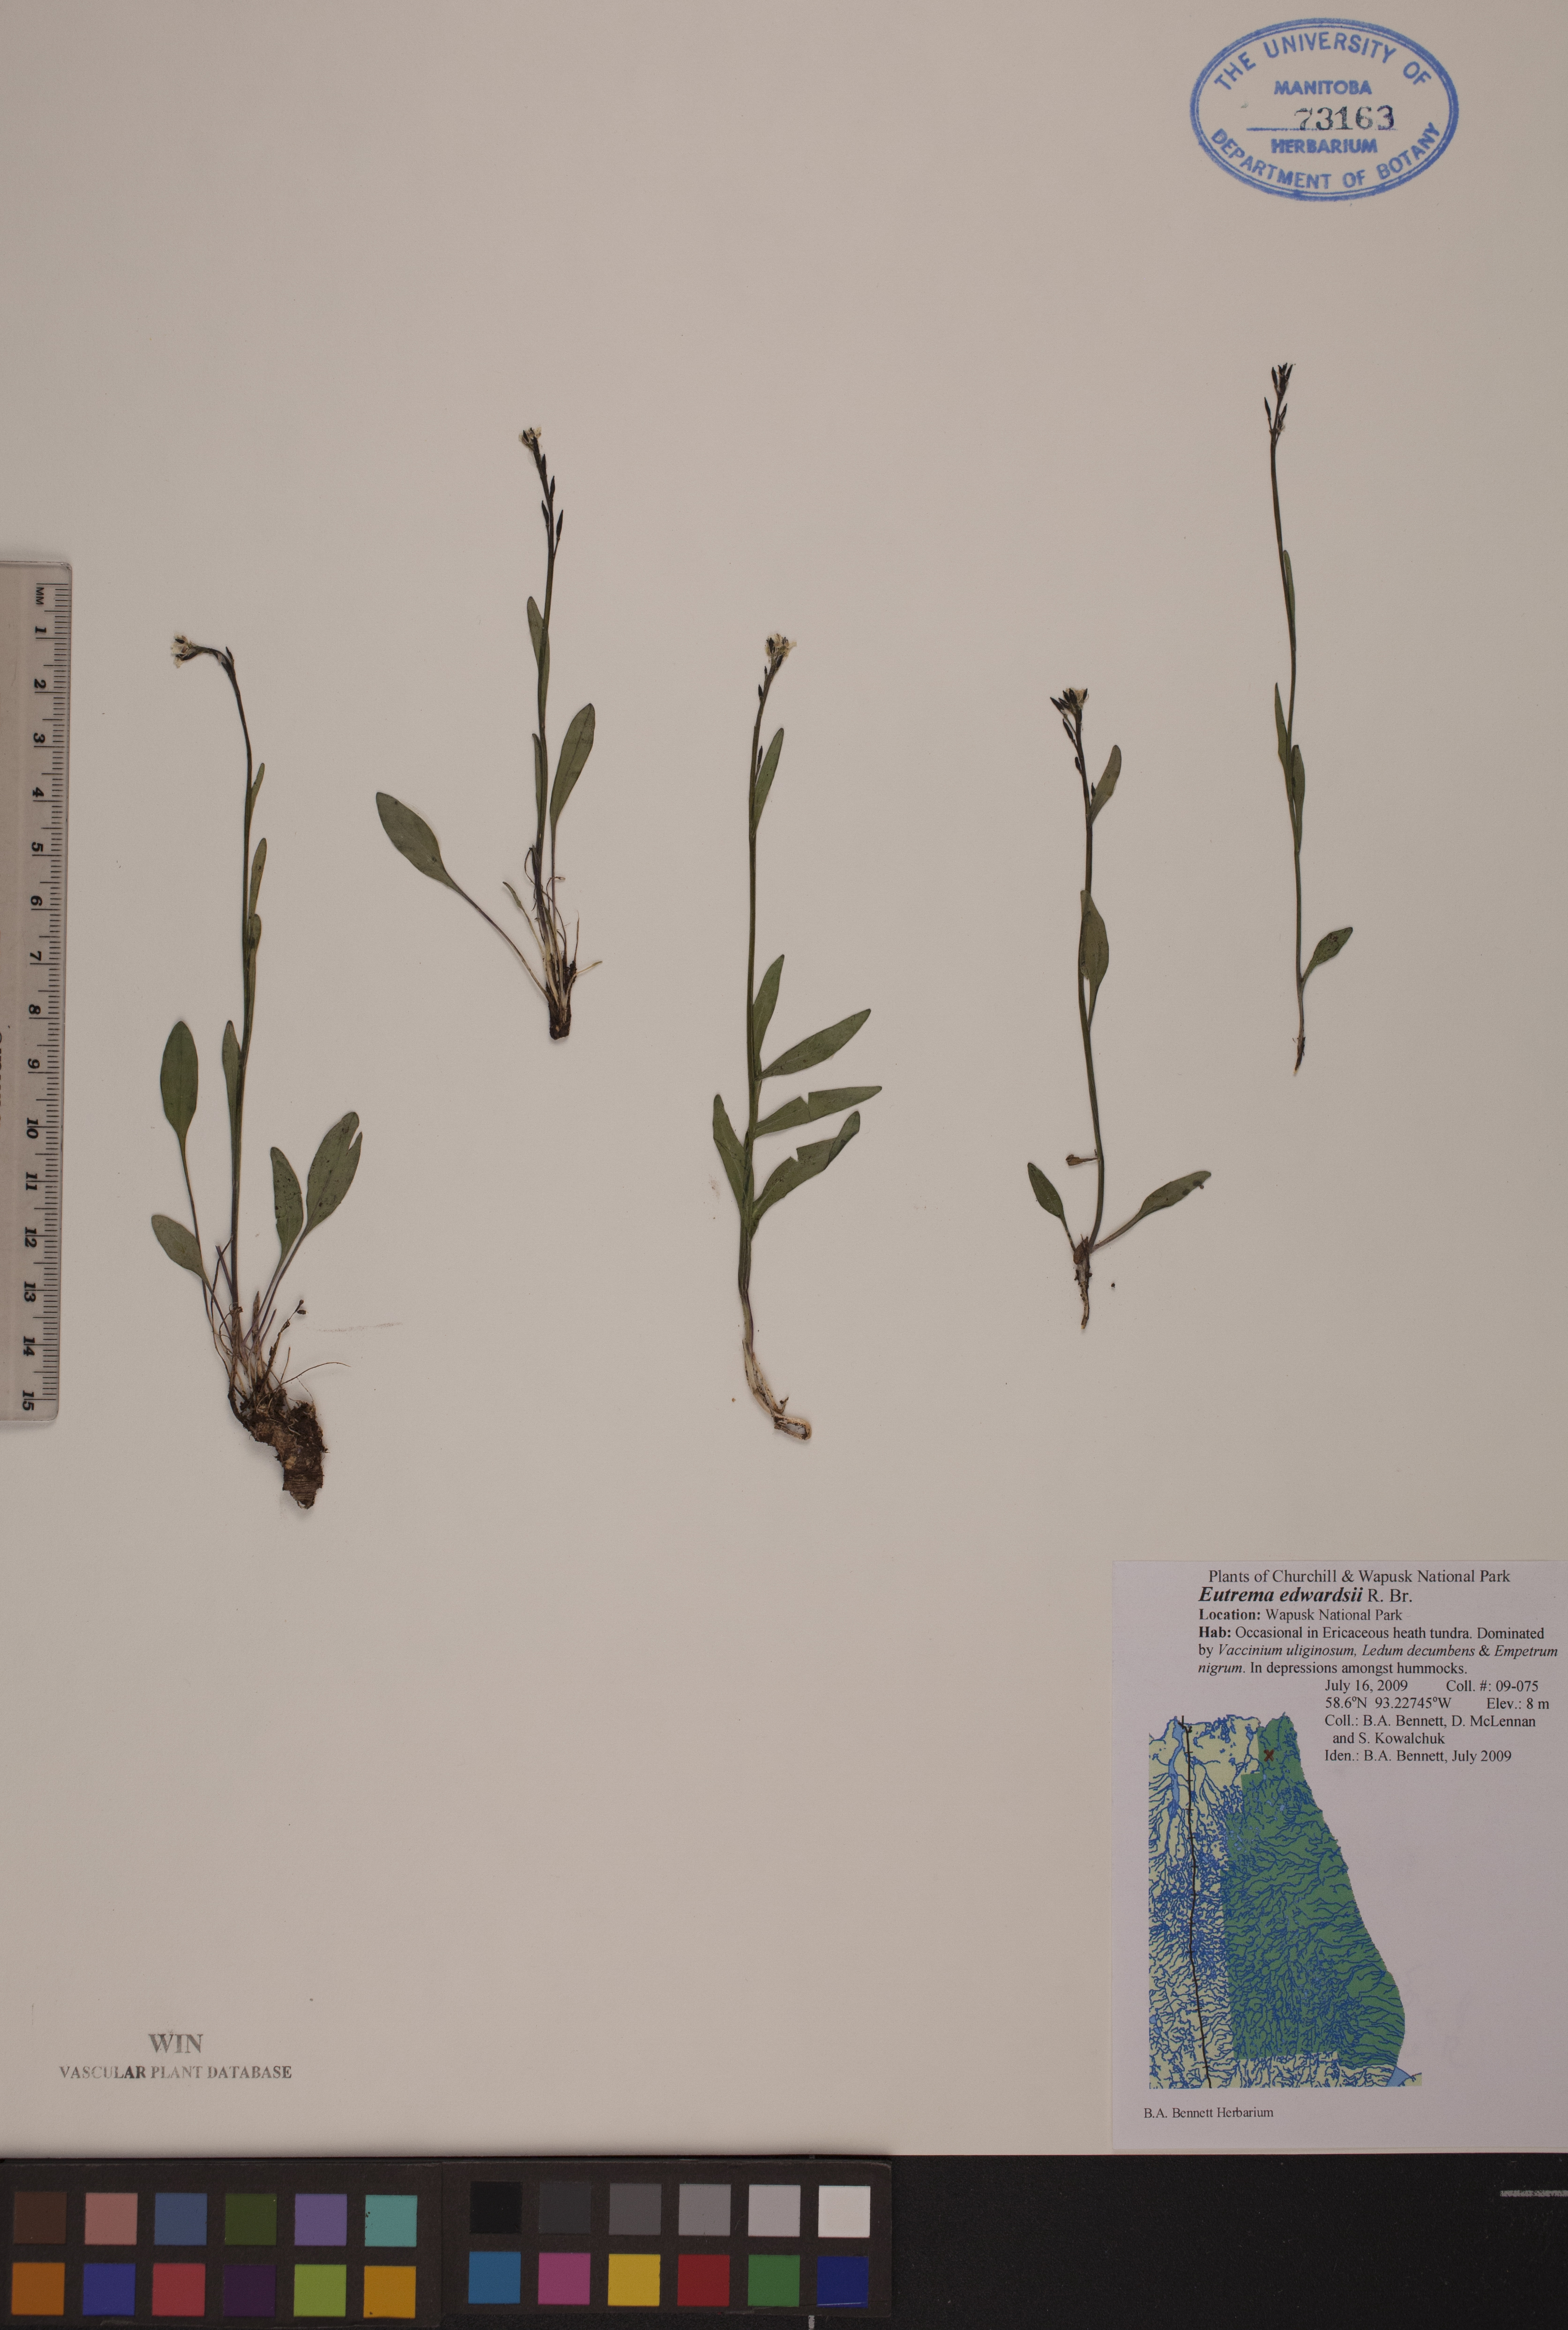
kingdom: Plantae
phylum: Tracheophyta
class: Magnoliopsida
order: Brassicales
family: Brassicaceae
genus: Eutrema
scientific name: Eutrema edwardsii
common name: Penland alpine fen mustard
